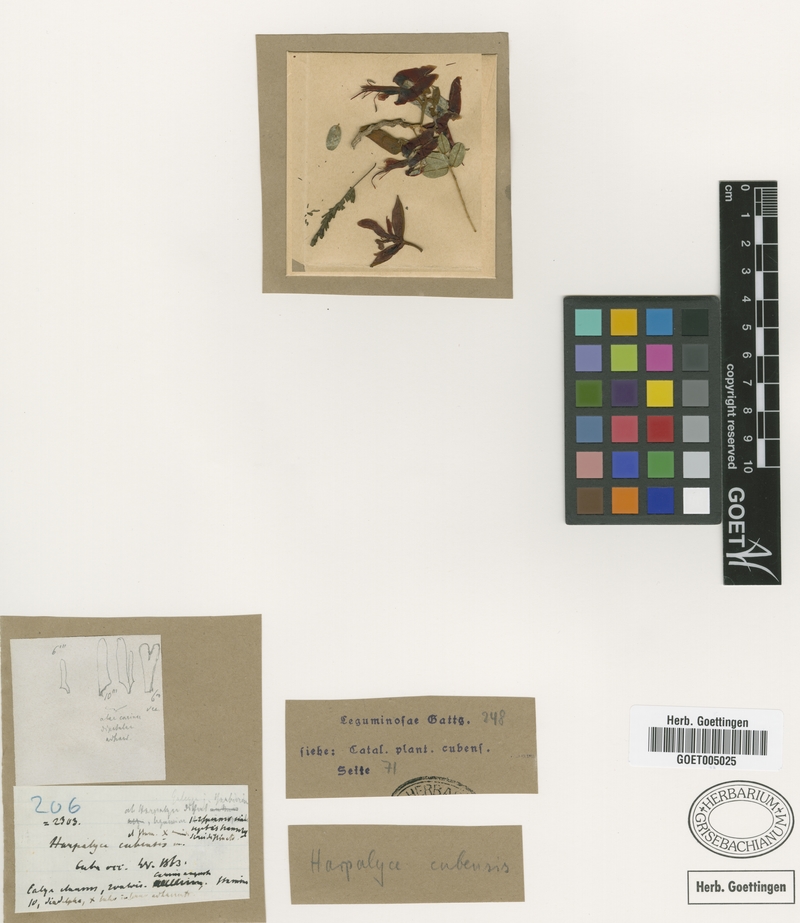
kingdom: Plantae
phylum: Tracheophyta
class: Magnoliopsida
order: Fabales
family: Fabaceae
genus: Harpalyce
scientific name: Harpalyce cubensis
